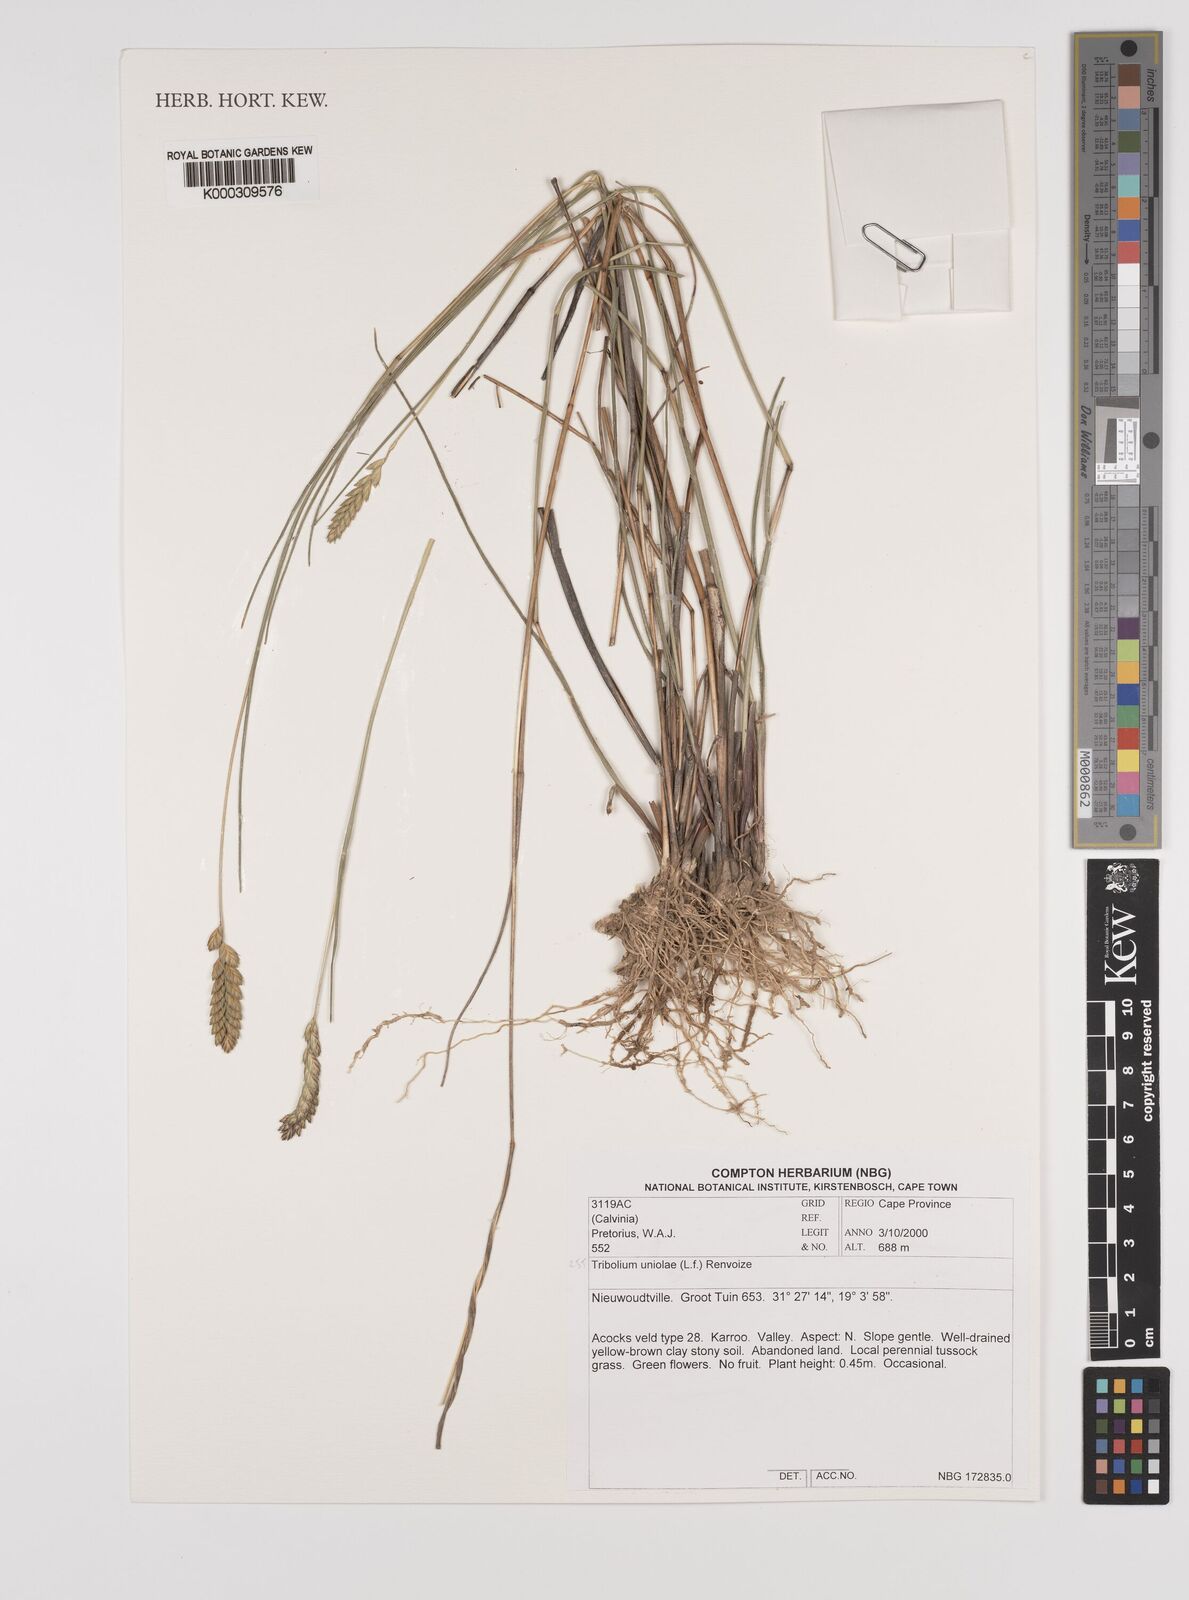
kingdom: Plantae
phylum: Tracheophyta
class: Liliopsida
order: Poales
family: Poaceae
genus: Tribolium
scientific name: Tribolium uniolae
